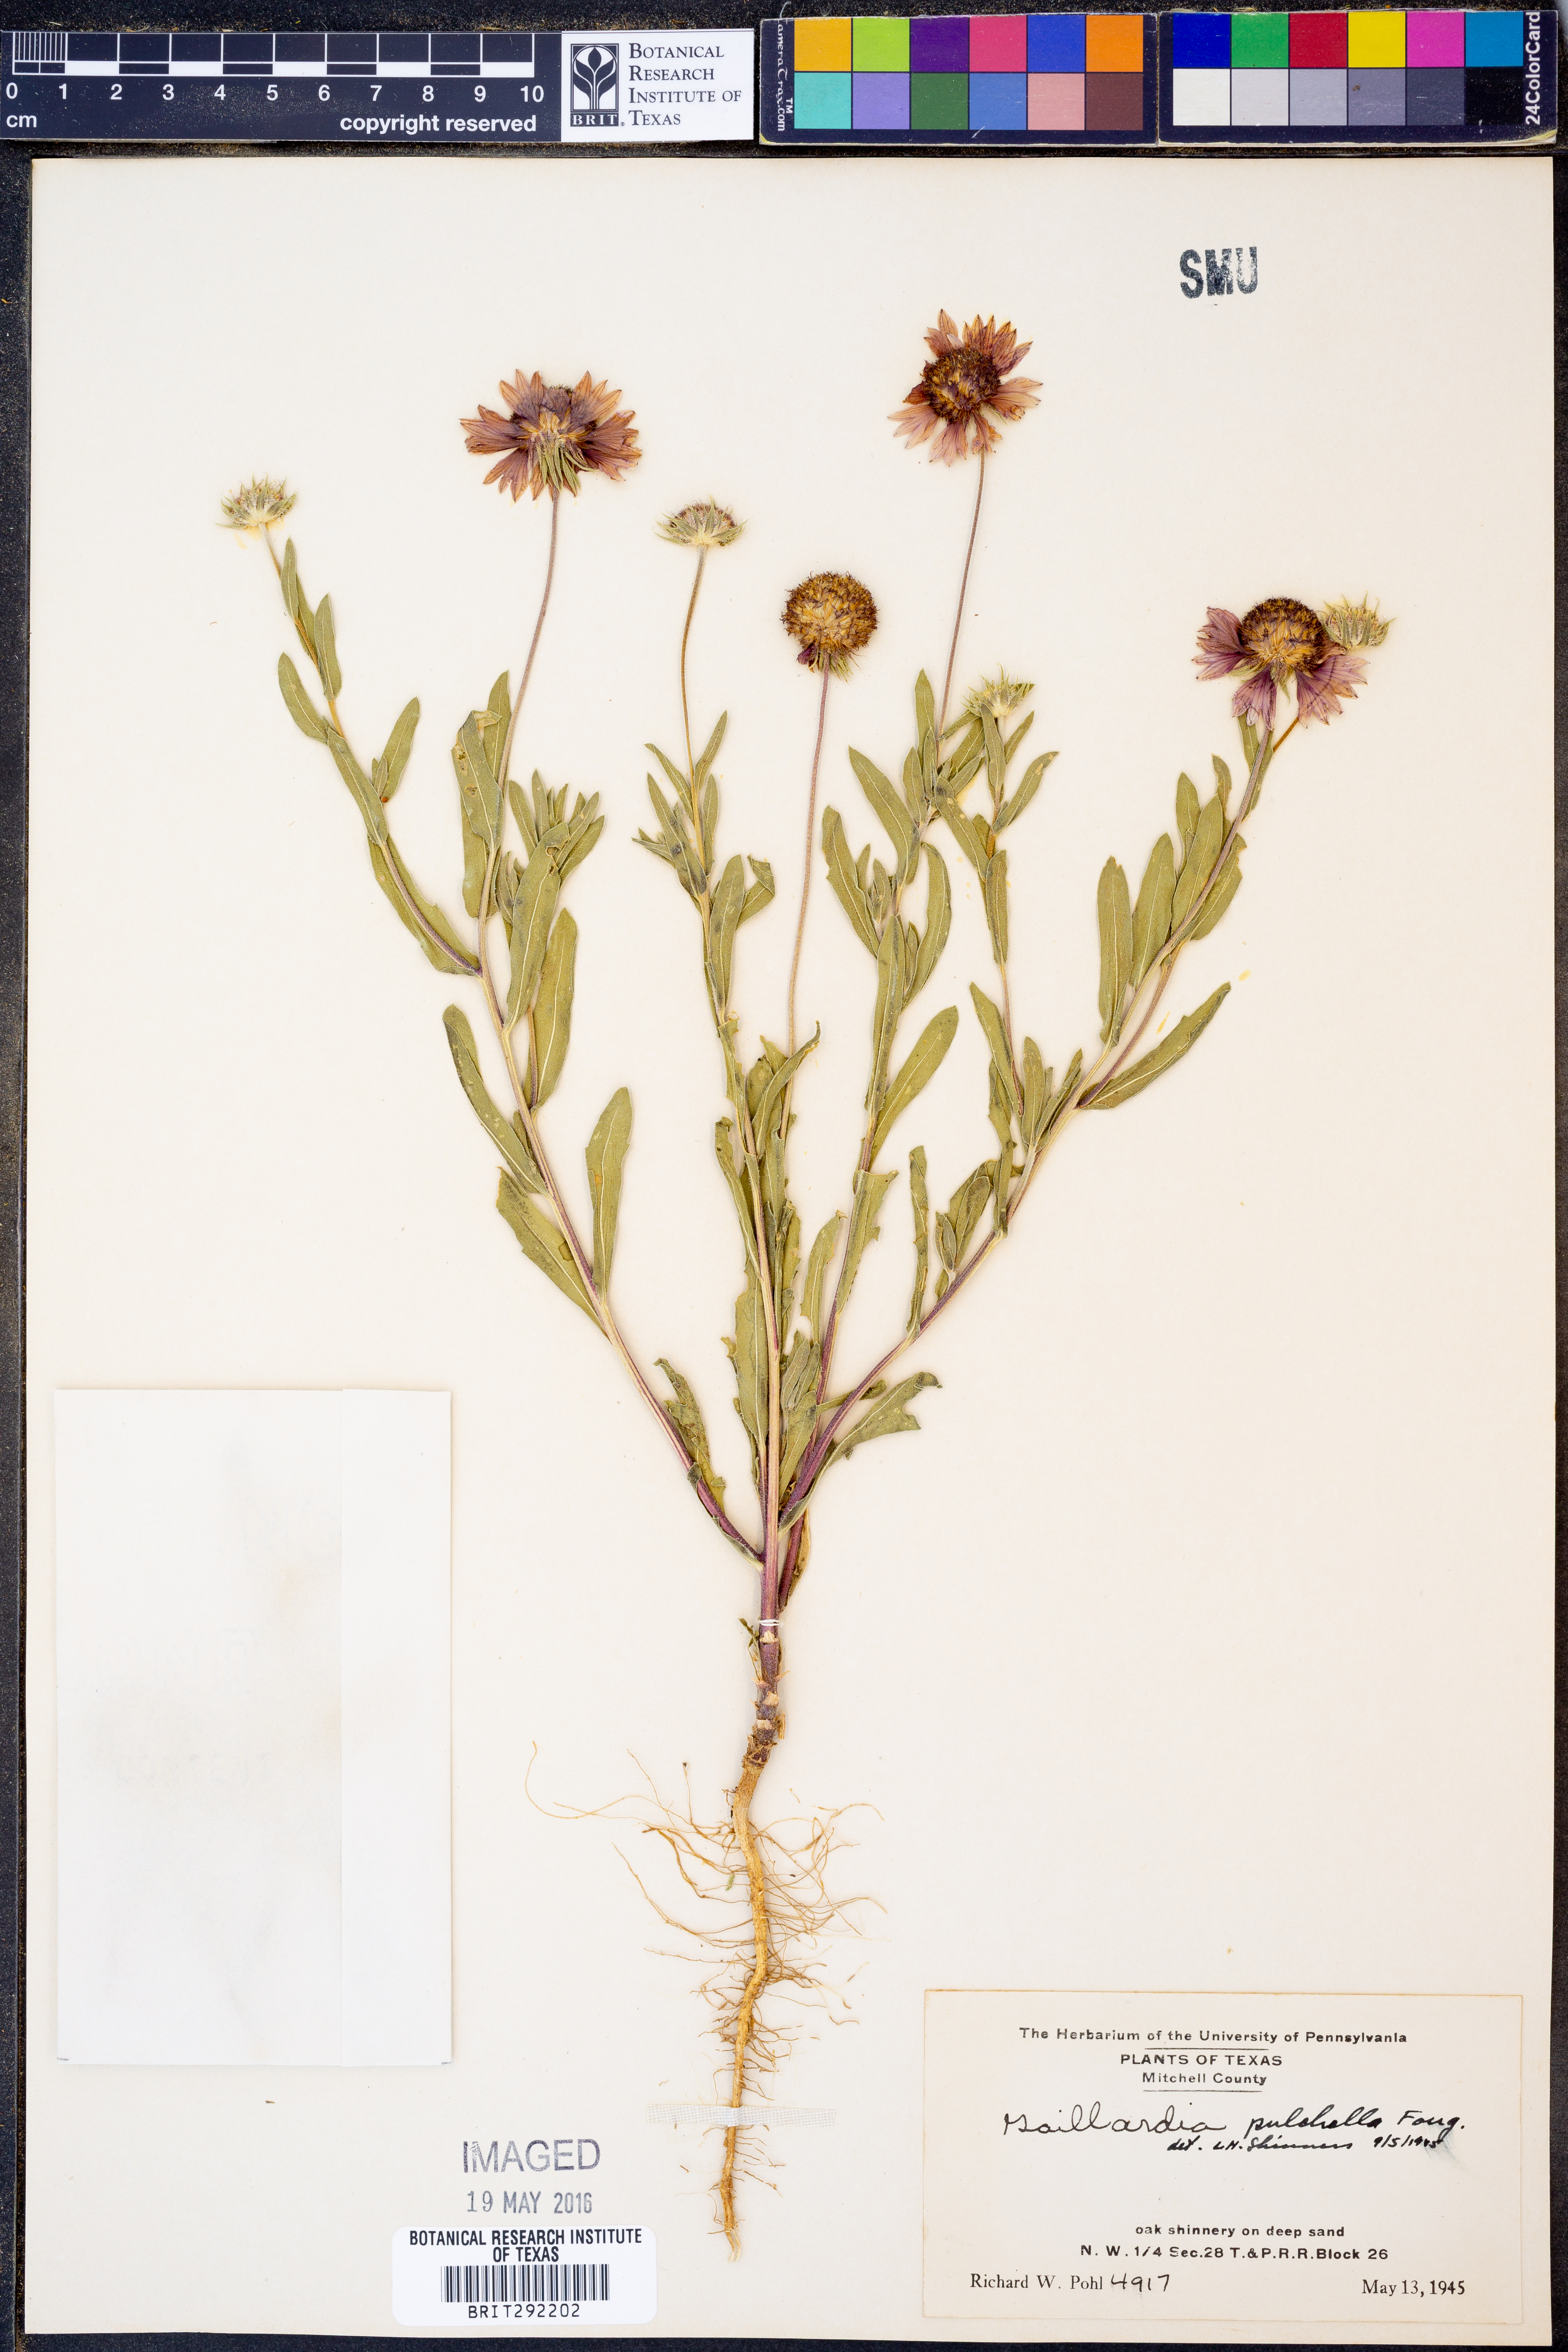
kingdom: Plantae
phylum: Tracheophyta
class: Magnoliopsida
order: Asterales
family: Asteraceae
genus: Gaillardia
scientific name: Gaillardia pulchella
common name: Firewheel
